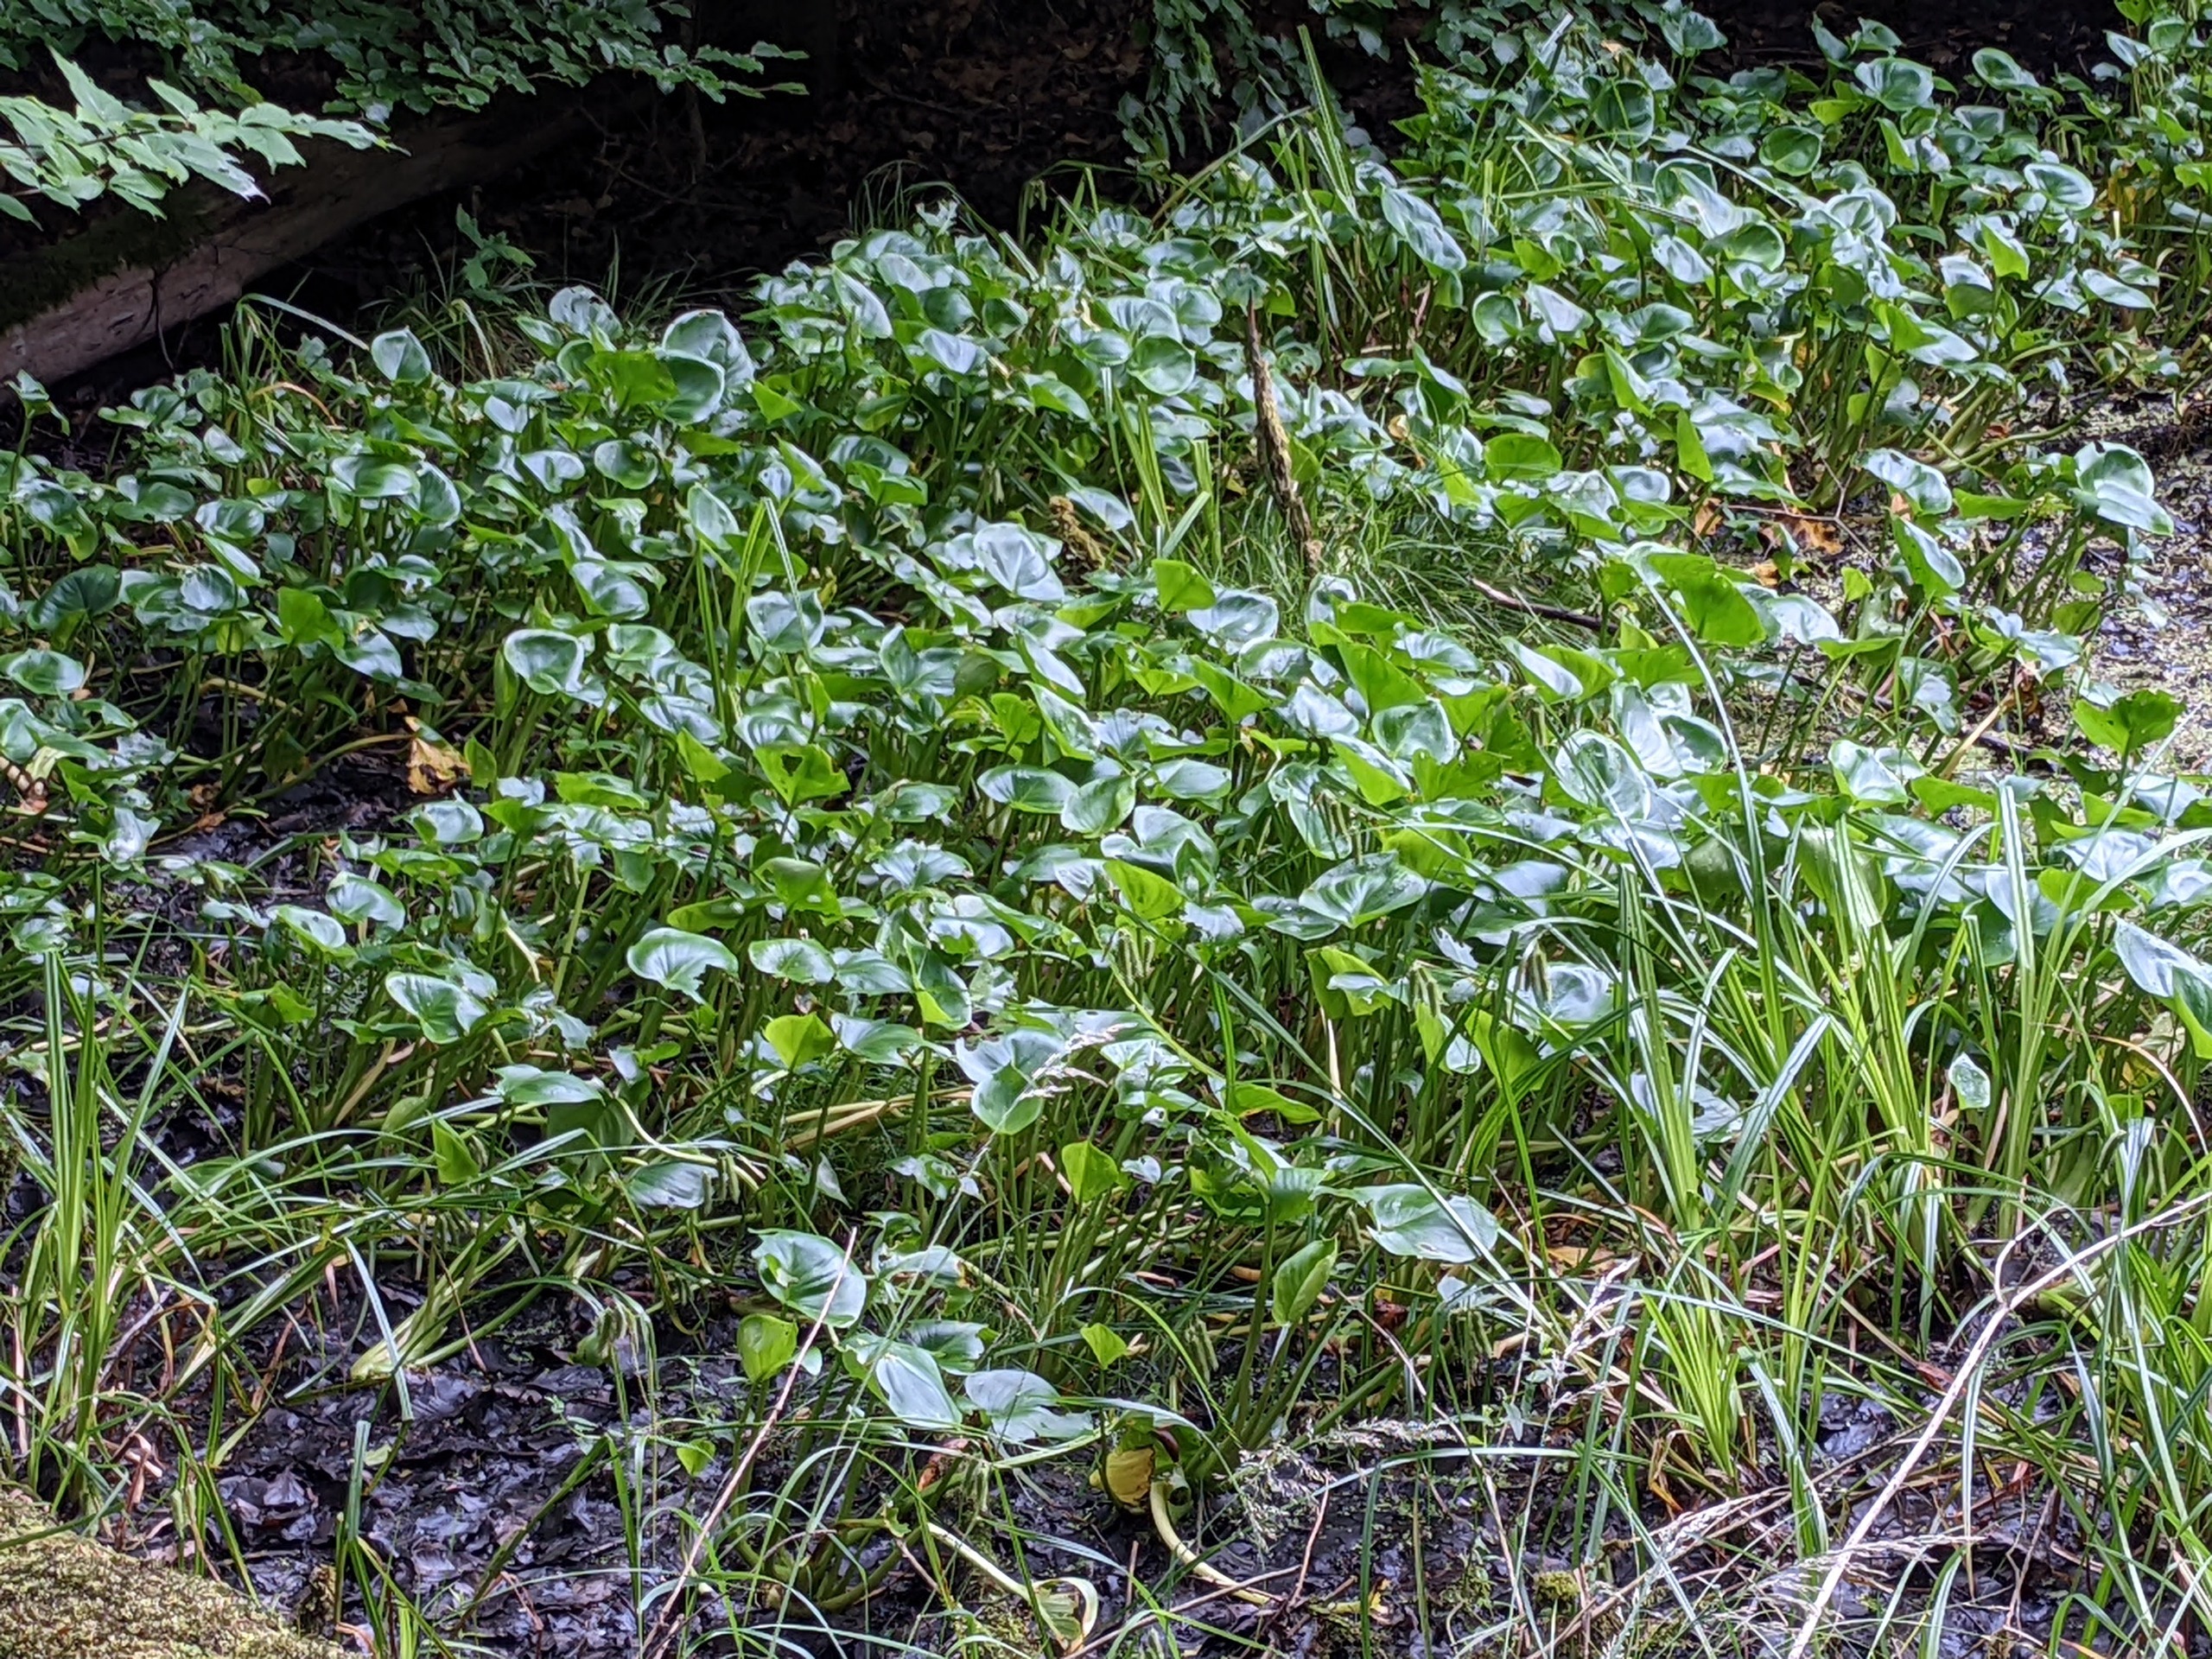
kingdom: Plantae
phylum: Tracheophyta
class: Liliopsida
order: Alismatales
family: Araceae
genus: Calla
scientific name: Calla palustris
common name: Kærmysse
